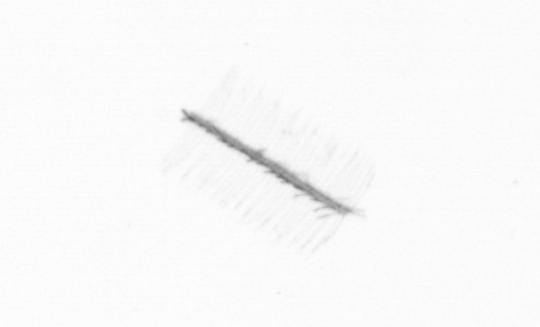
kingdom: Chromista
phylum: Ochrophyta
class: Bacillariophyceae
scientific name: Bacillariophyceae
